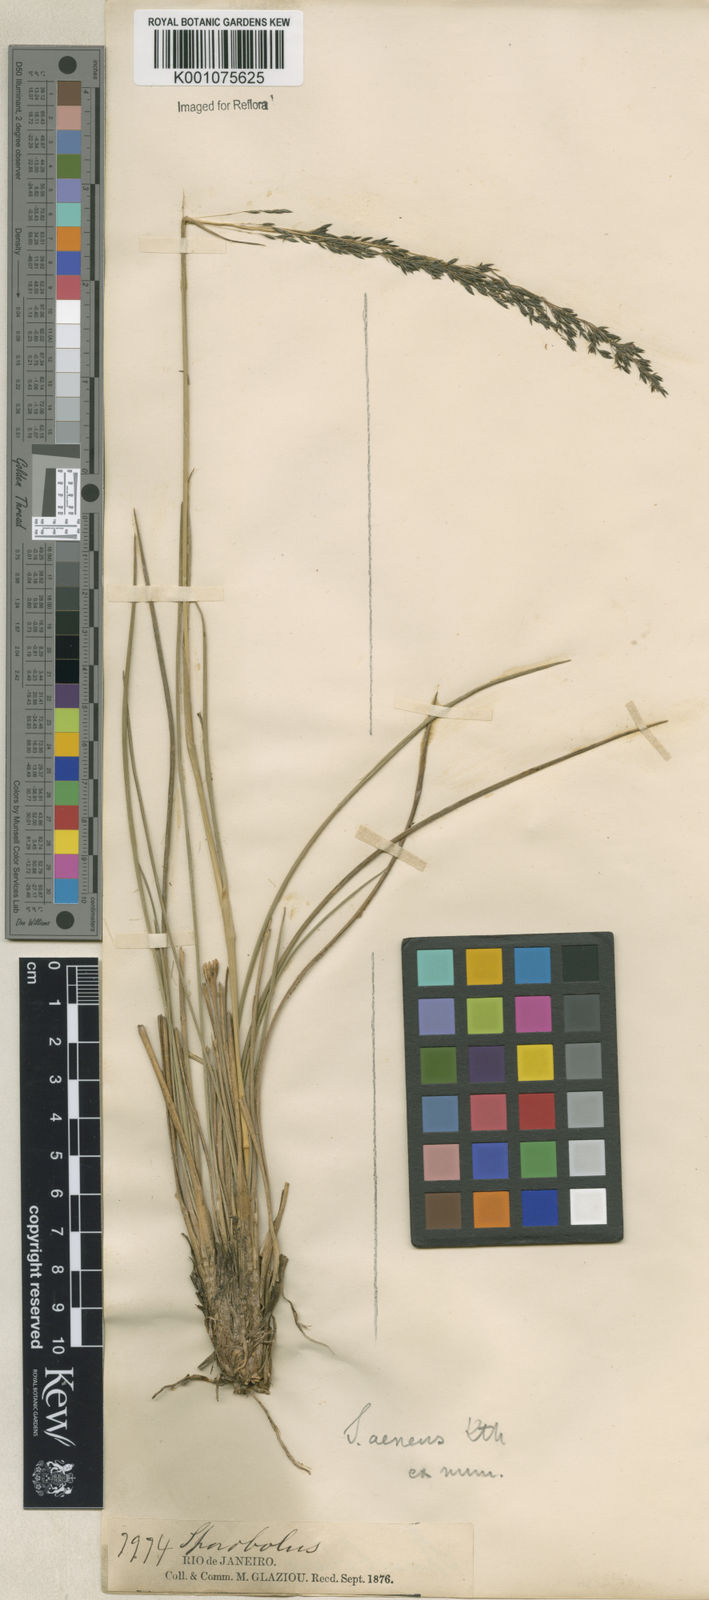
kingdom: Plantae
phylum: Tracheophyta
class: Liliopsida
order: Poales
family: Poaceae
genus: Sporobolus
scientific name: Sporobolus camporum
